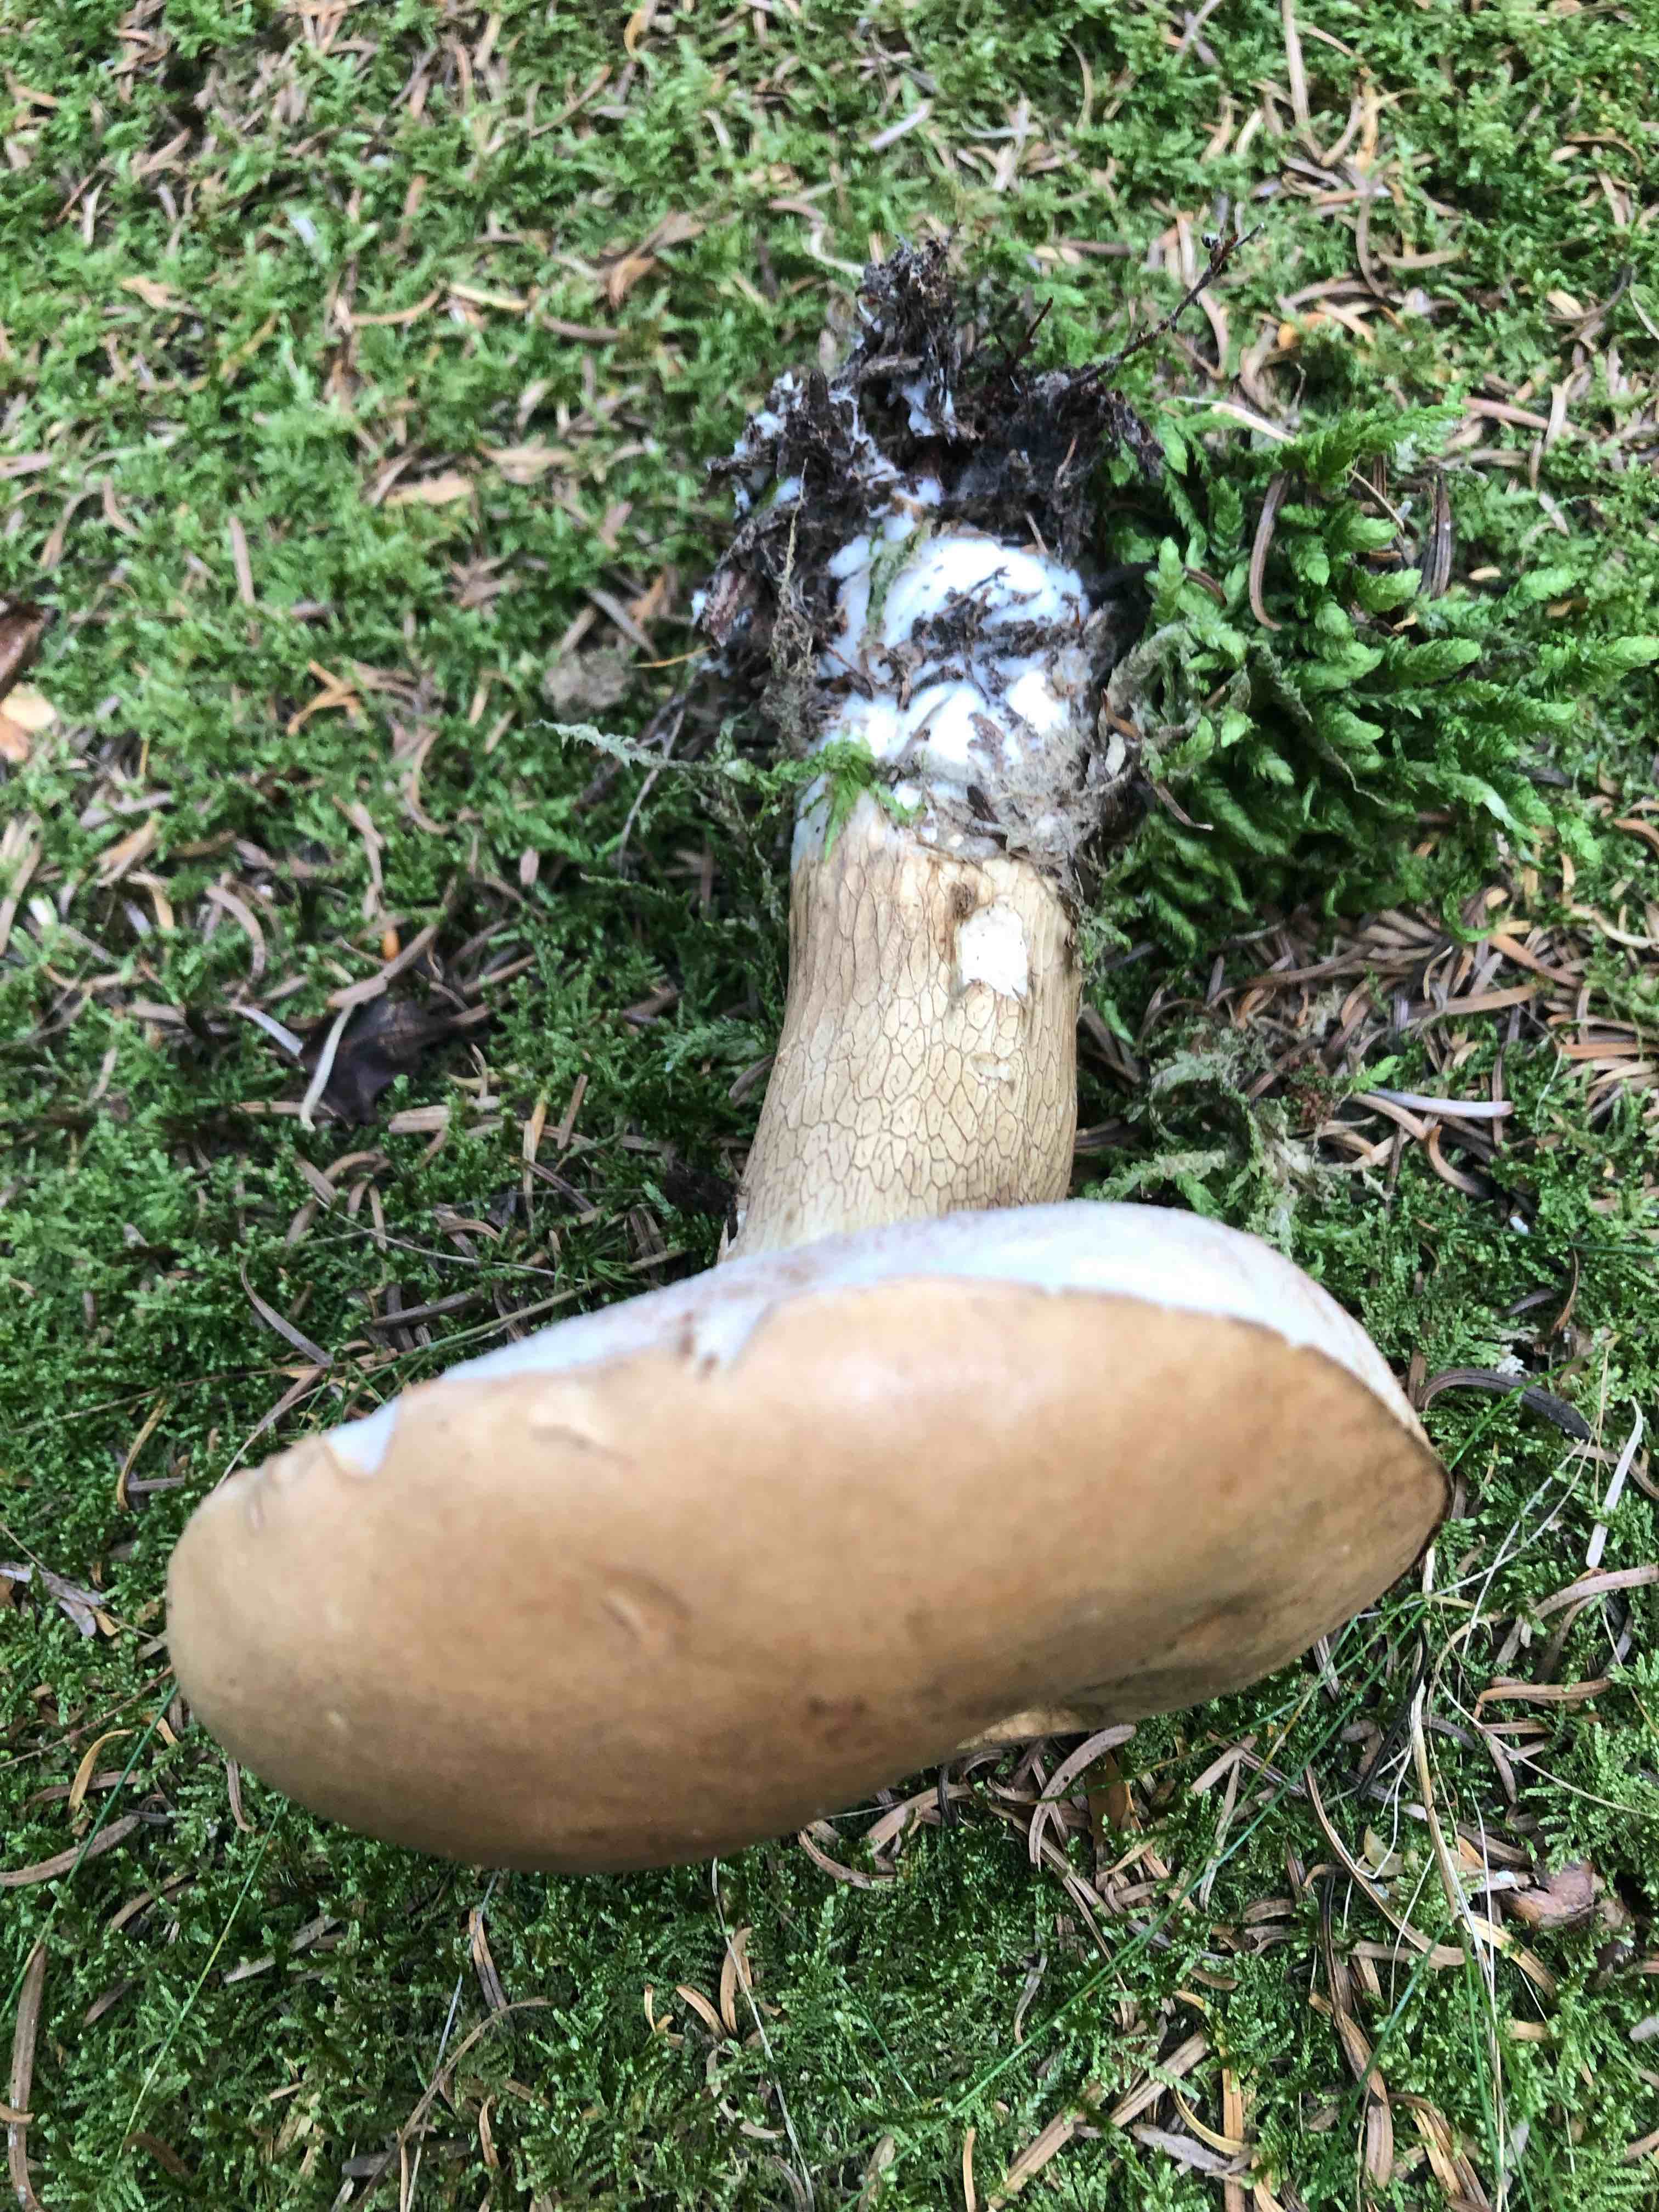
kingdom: Fungi
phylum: Basidiomycota
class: Agaricomycetes
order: Boletales
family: Boletaceae
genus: Tylopilus
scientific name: Tylopilus felleus
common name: galderørhat
